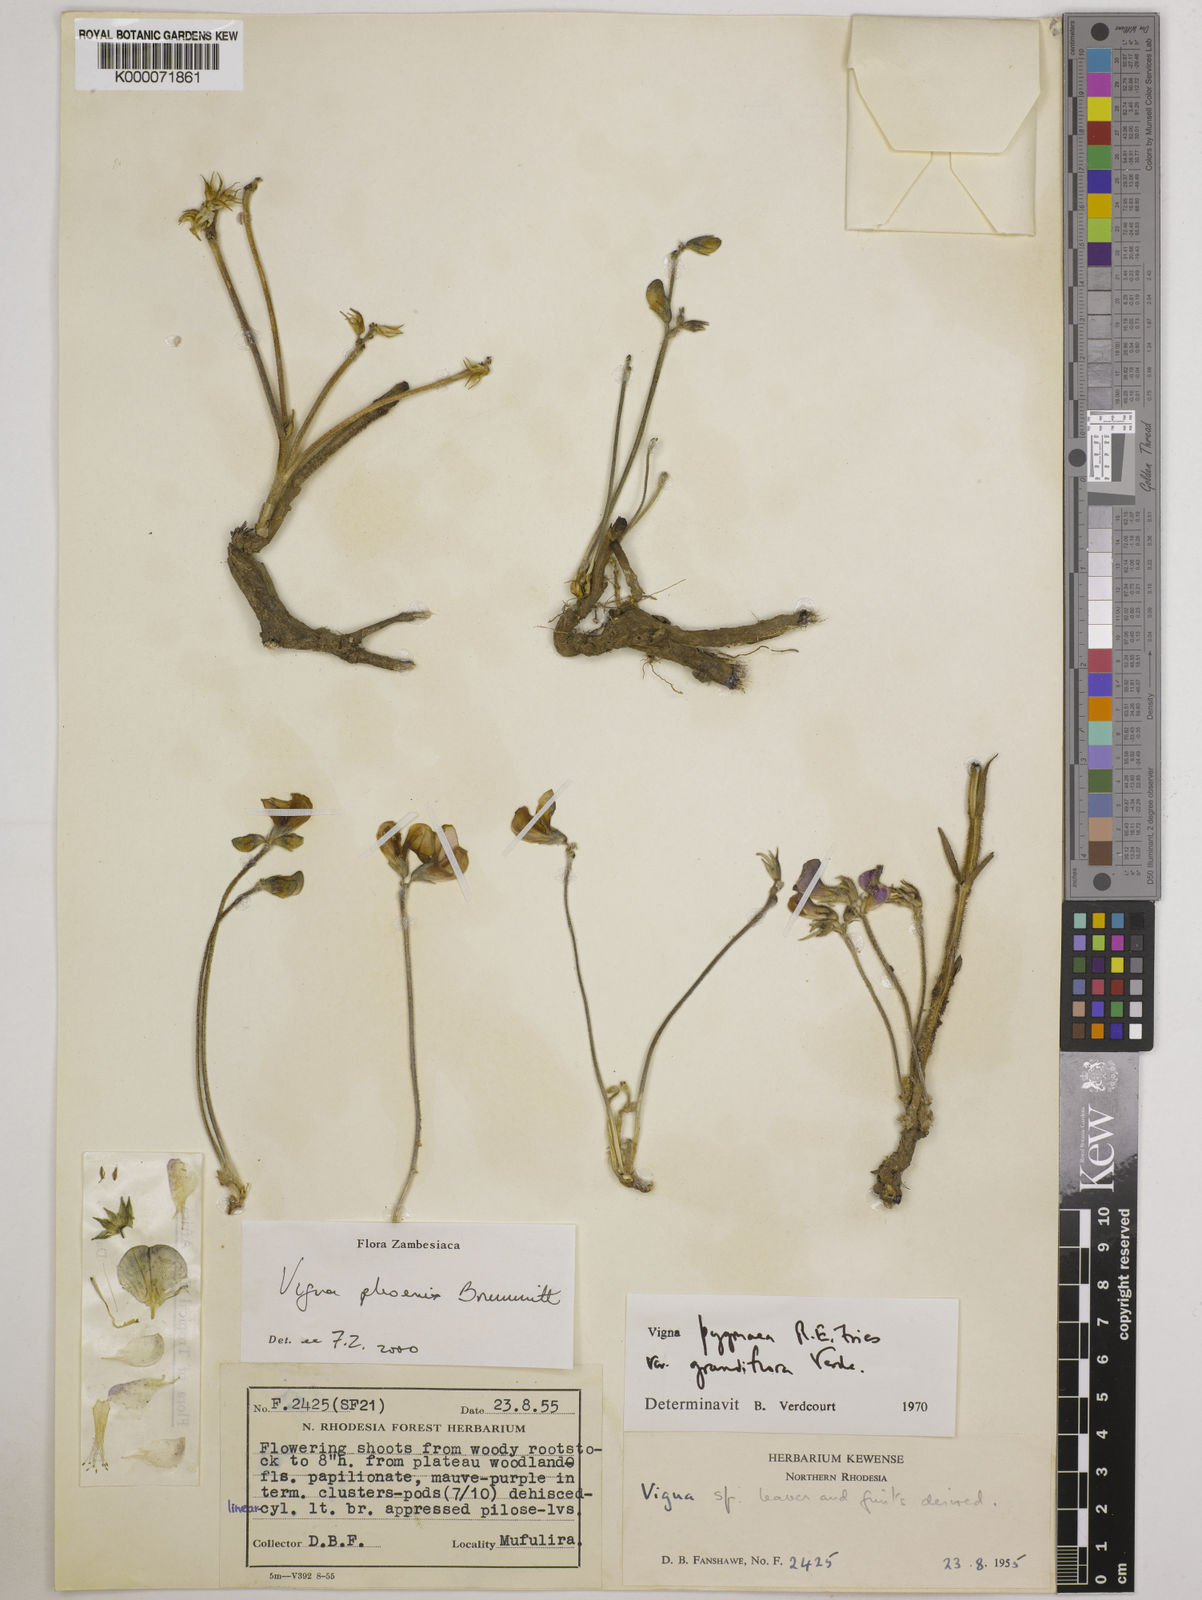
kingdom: Plantae
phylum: Tracheophyta
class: Magnoliopsida
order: Fabales
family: Fabaceae
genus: Vigna
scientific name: Vigna phoenix
